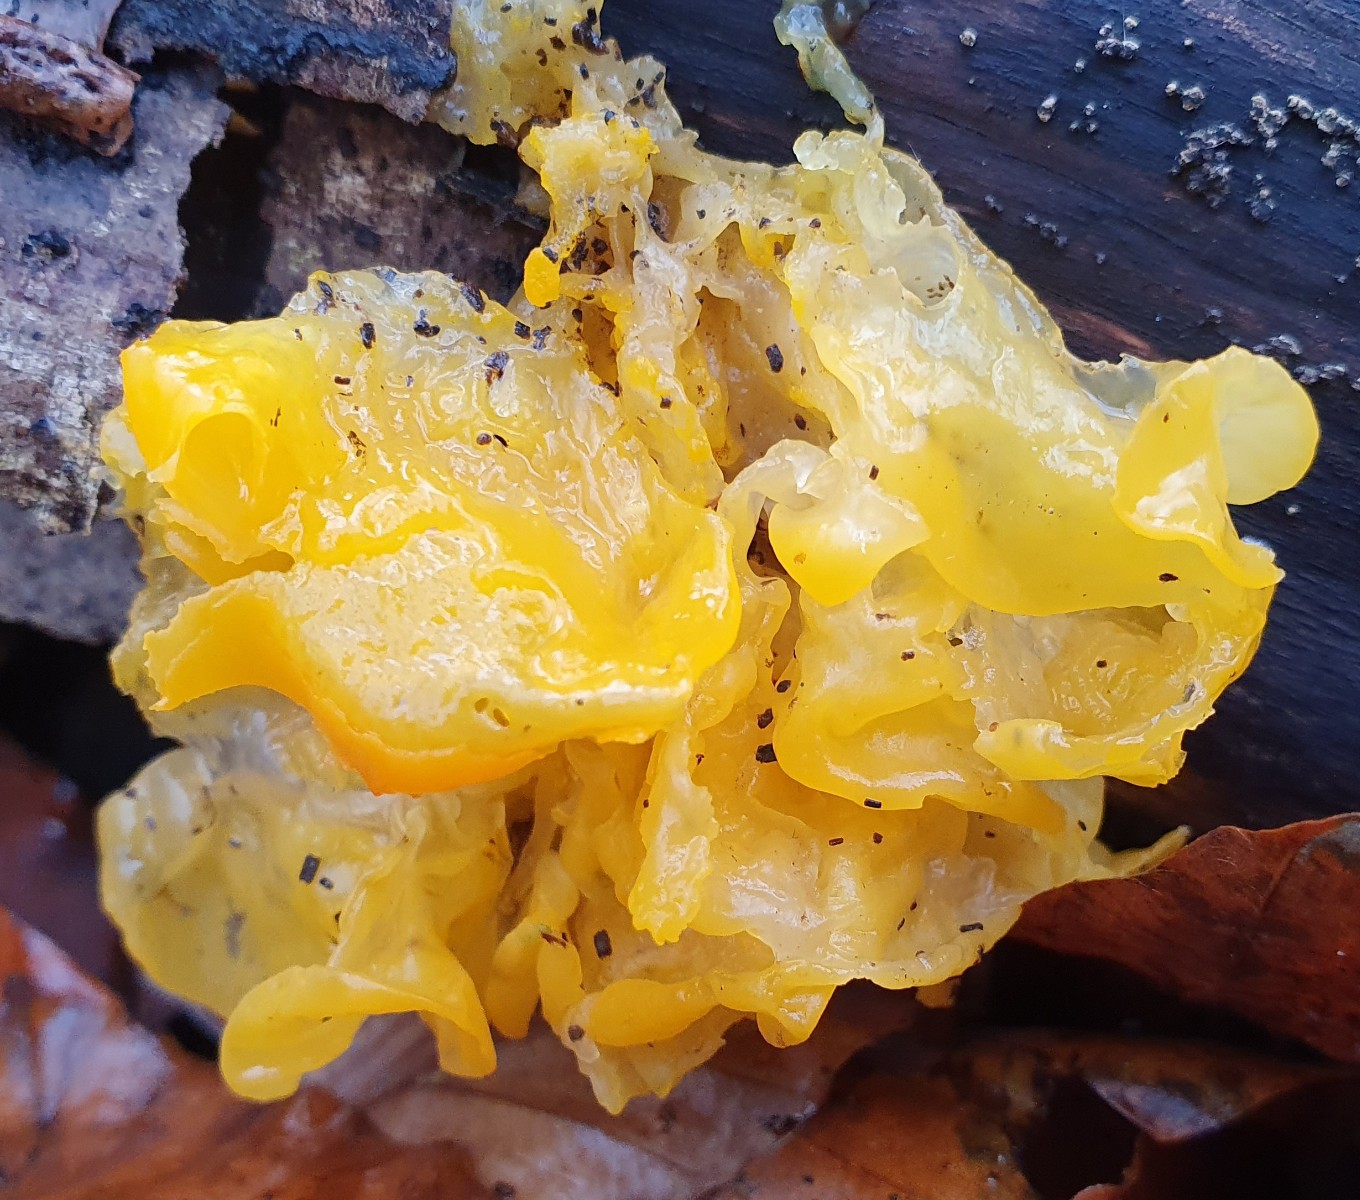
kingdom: Fungi
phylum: Basidiomycota
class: Tremellomycetes
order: Tremellales
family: Tremellaceae
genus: Tremella
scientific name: Tremella mesenterica
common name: gul bævresvamp
